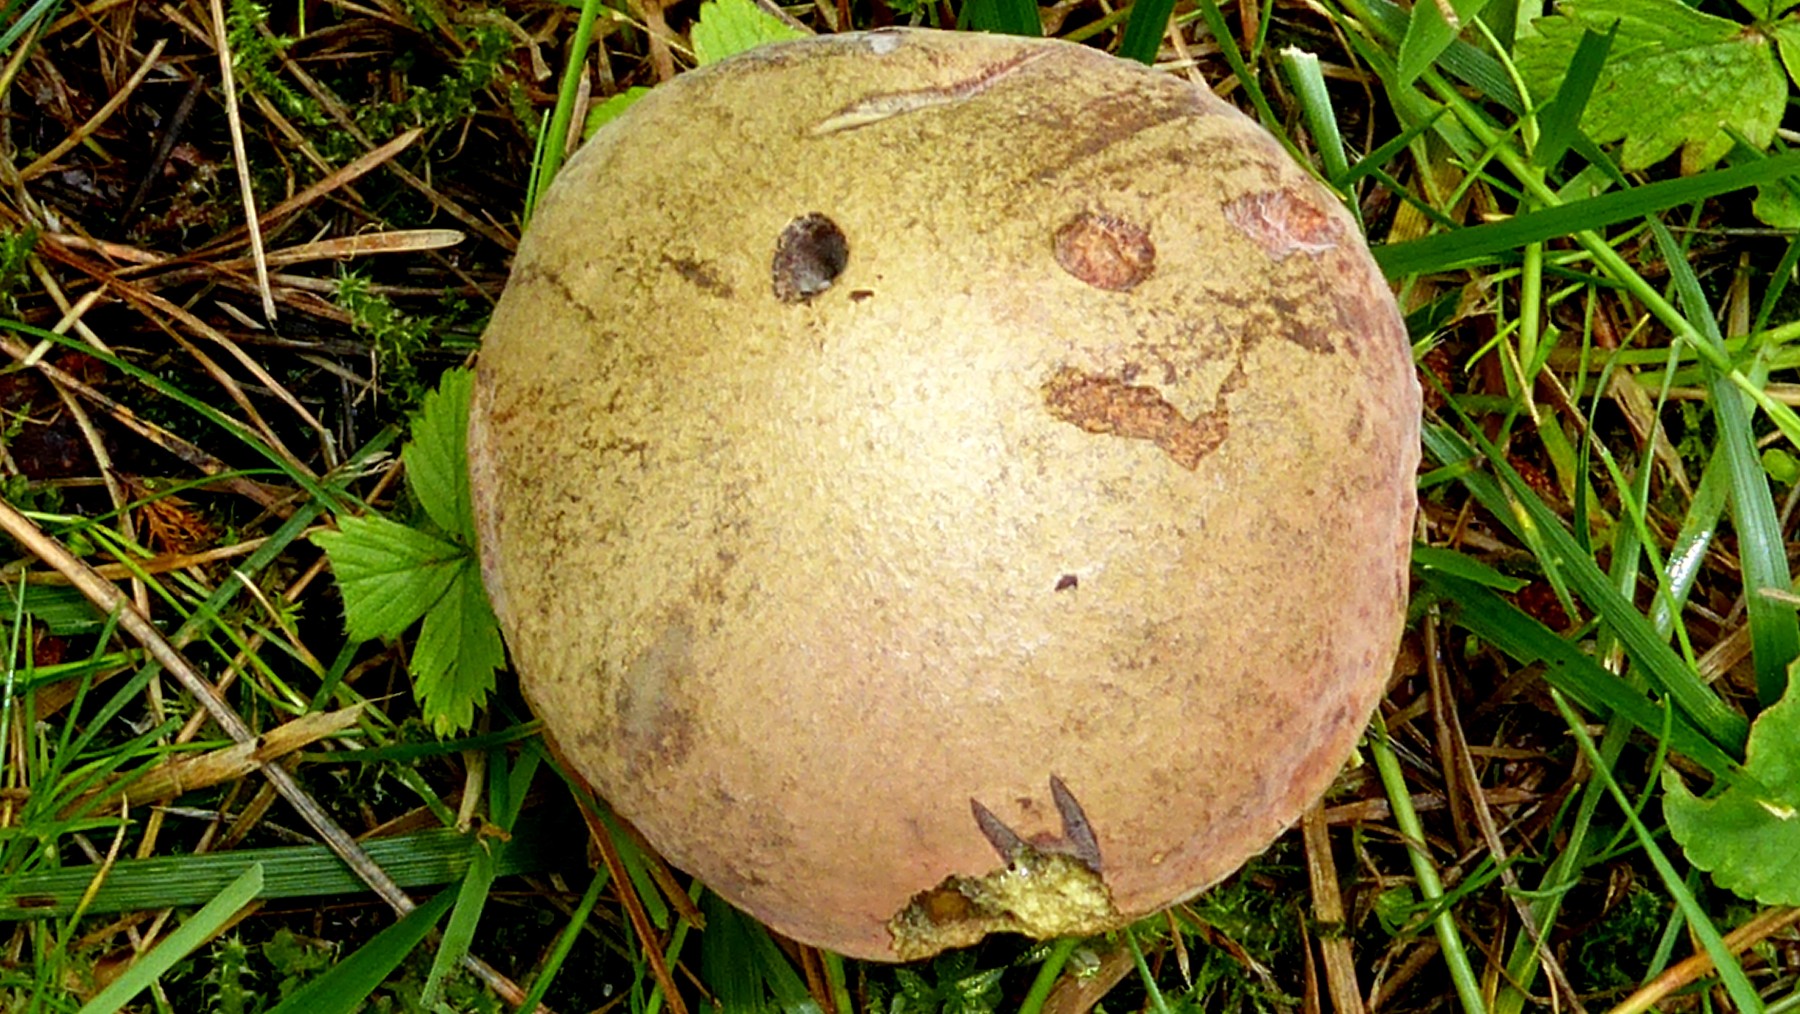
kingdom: Fungi
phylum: Basidiomycota
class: Agaricomycetes
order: Boletales
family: Boletaceae
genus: Suillellus
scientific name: Suillellus luridus
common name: netstokket indigorørhat
